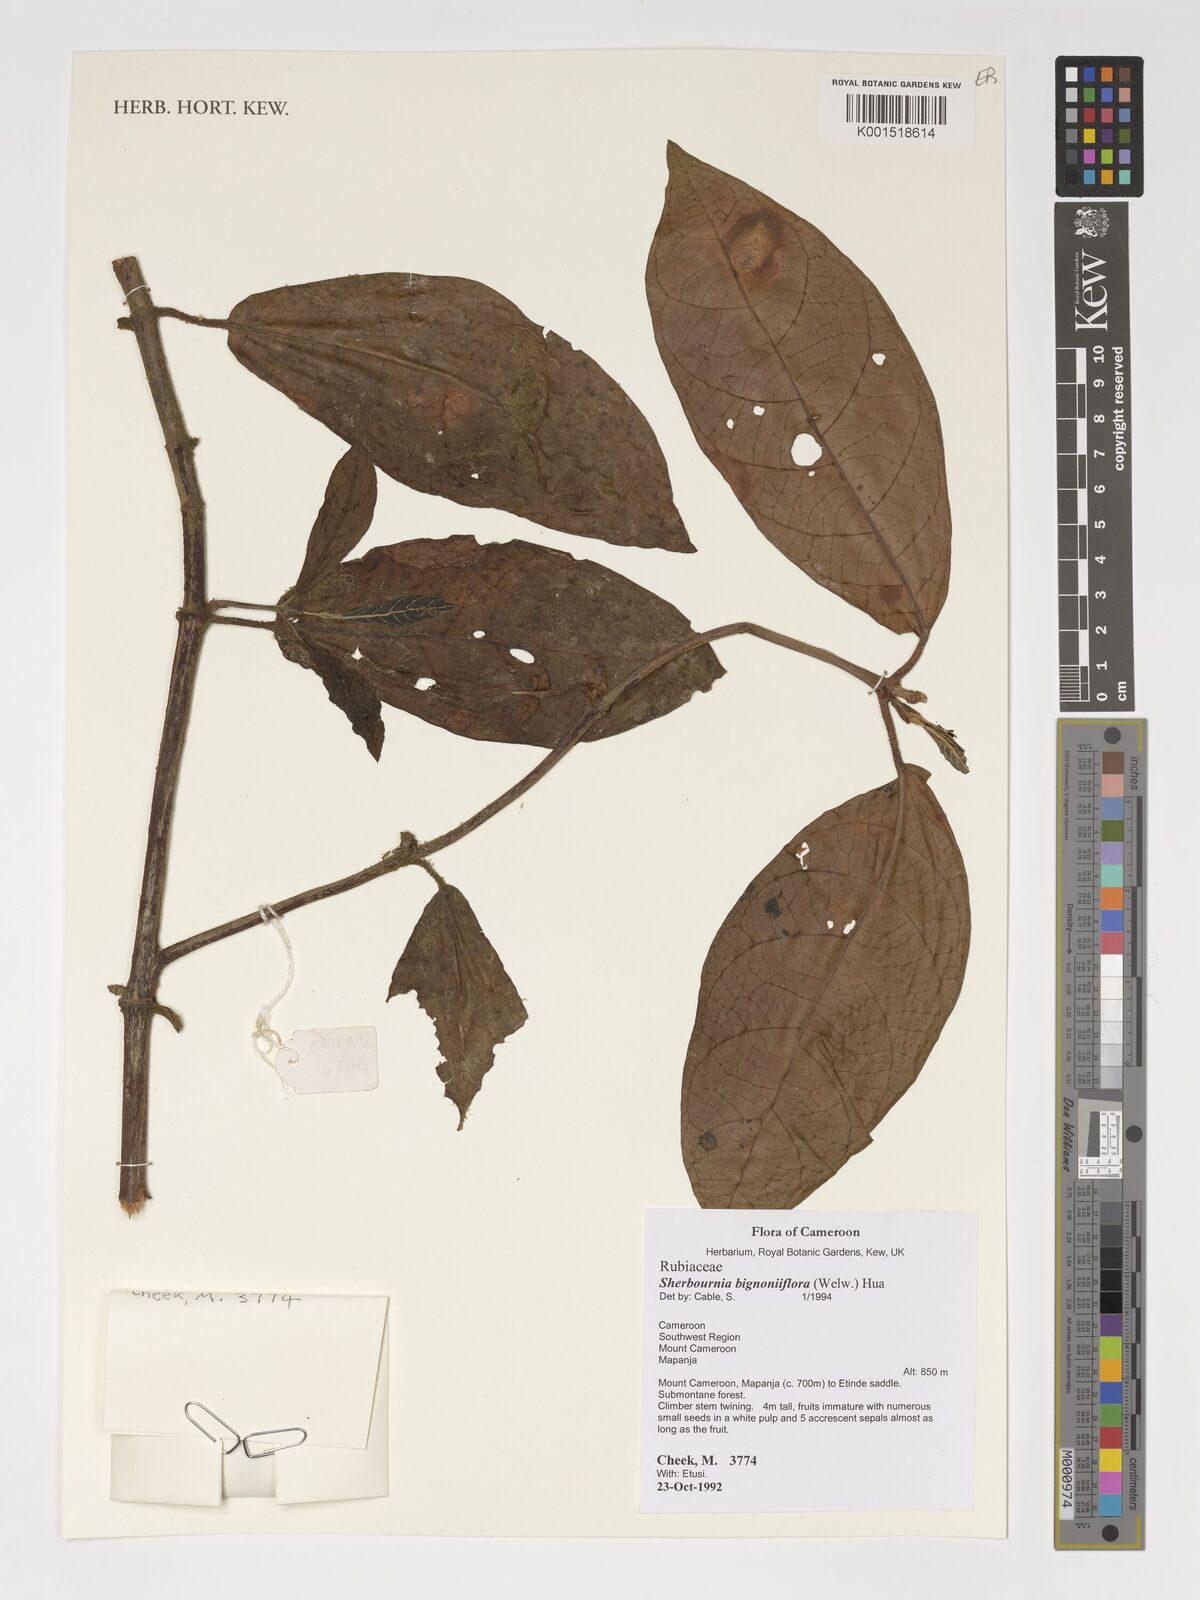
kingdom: Plantae
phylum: Tracheophyta
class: Magnoliopsida
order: Gentianales
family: Rubiaceae
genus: Sherbournia
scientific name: Sherbournia bignoniiflora
